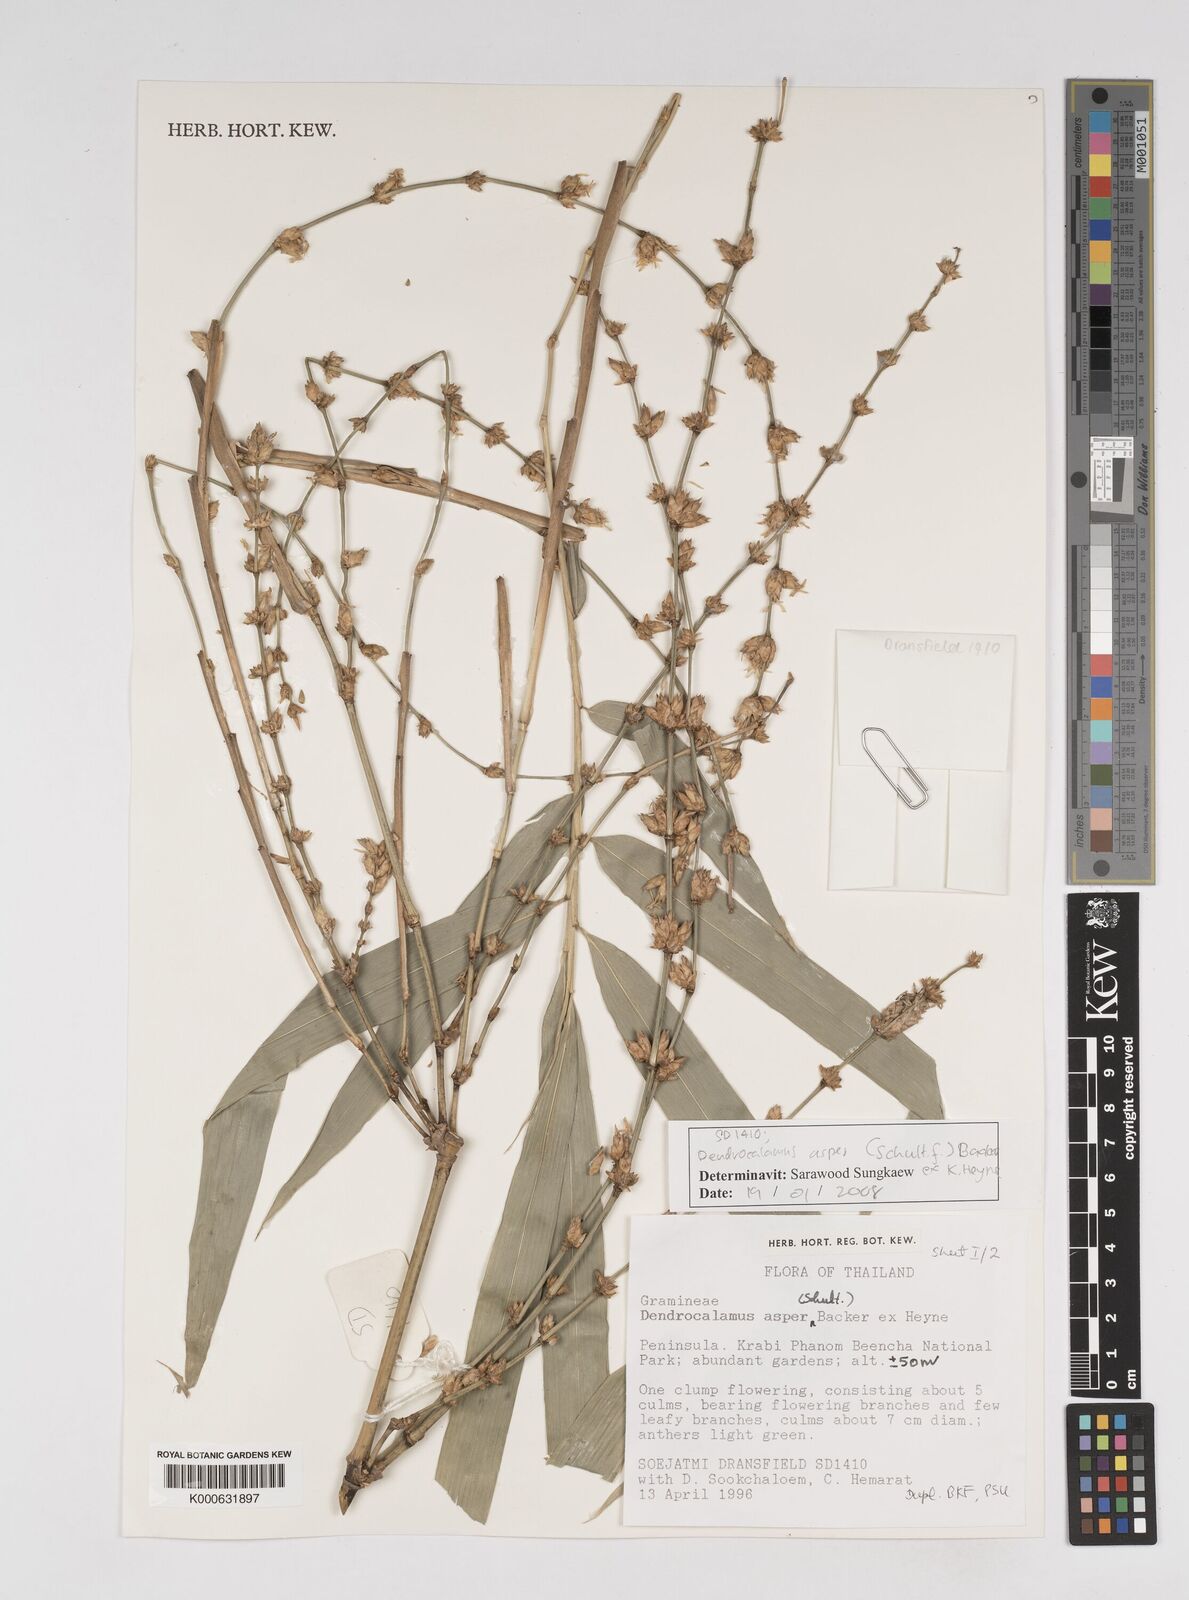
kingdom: Plantae
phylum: Tracheophyta
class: Liliopsida
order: Poales
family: Poaceae
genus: Dendrocalamus
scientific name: Dendrocalamus
